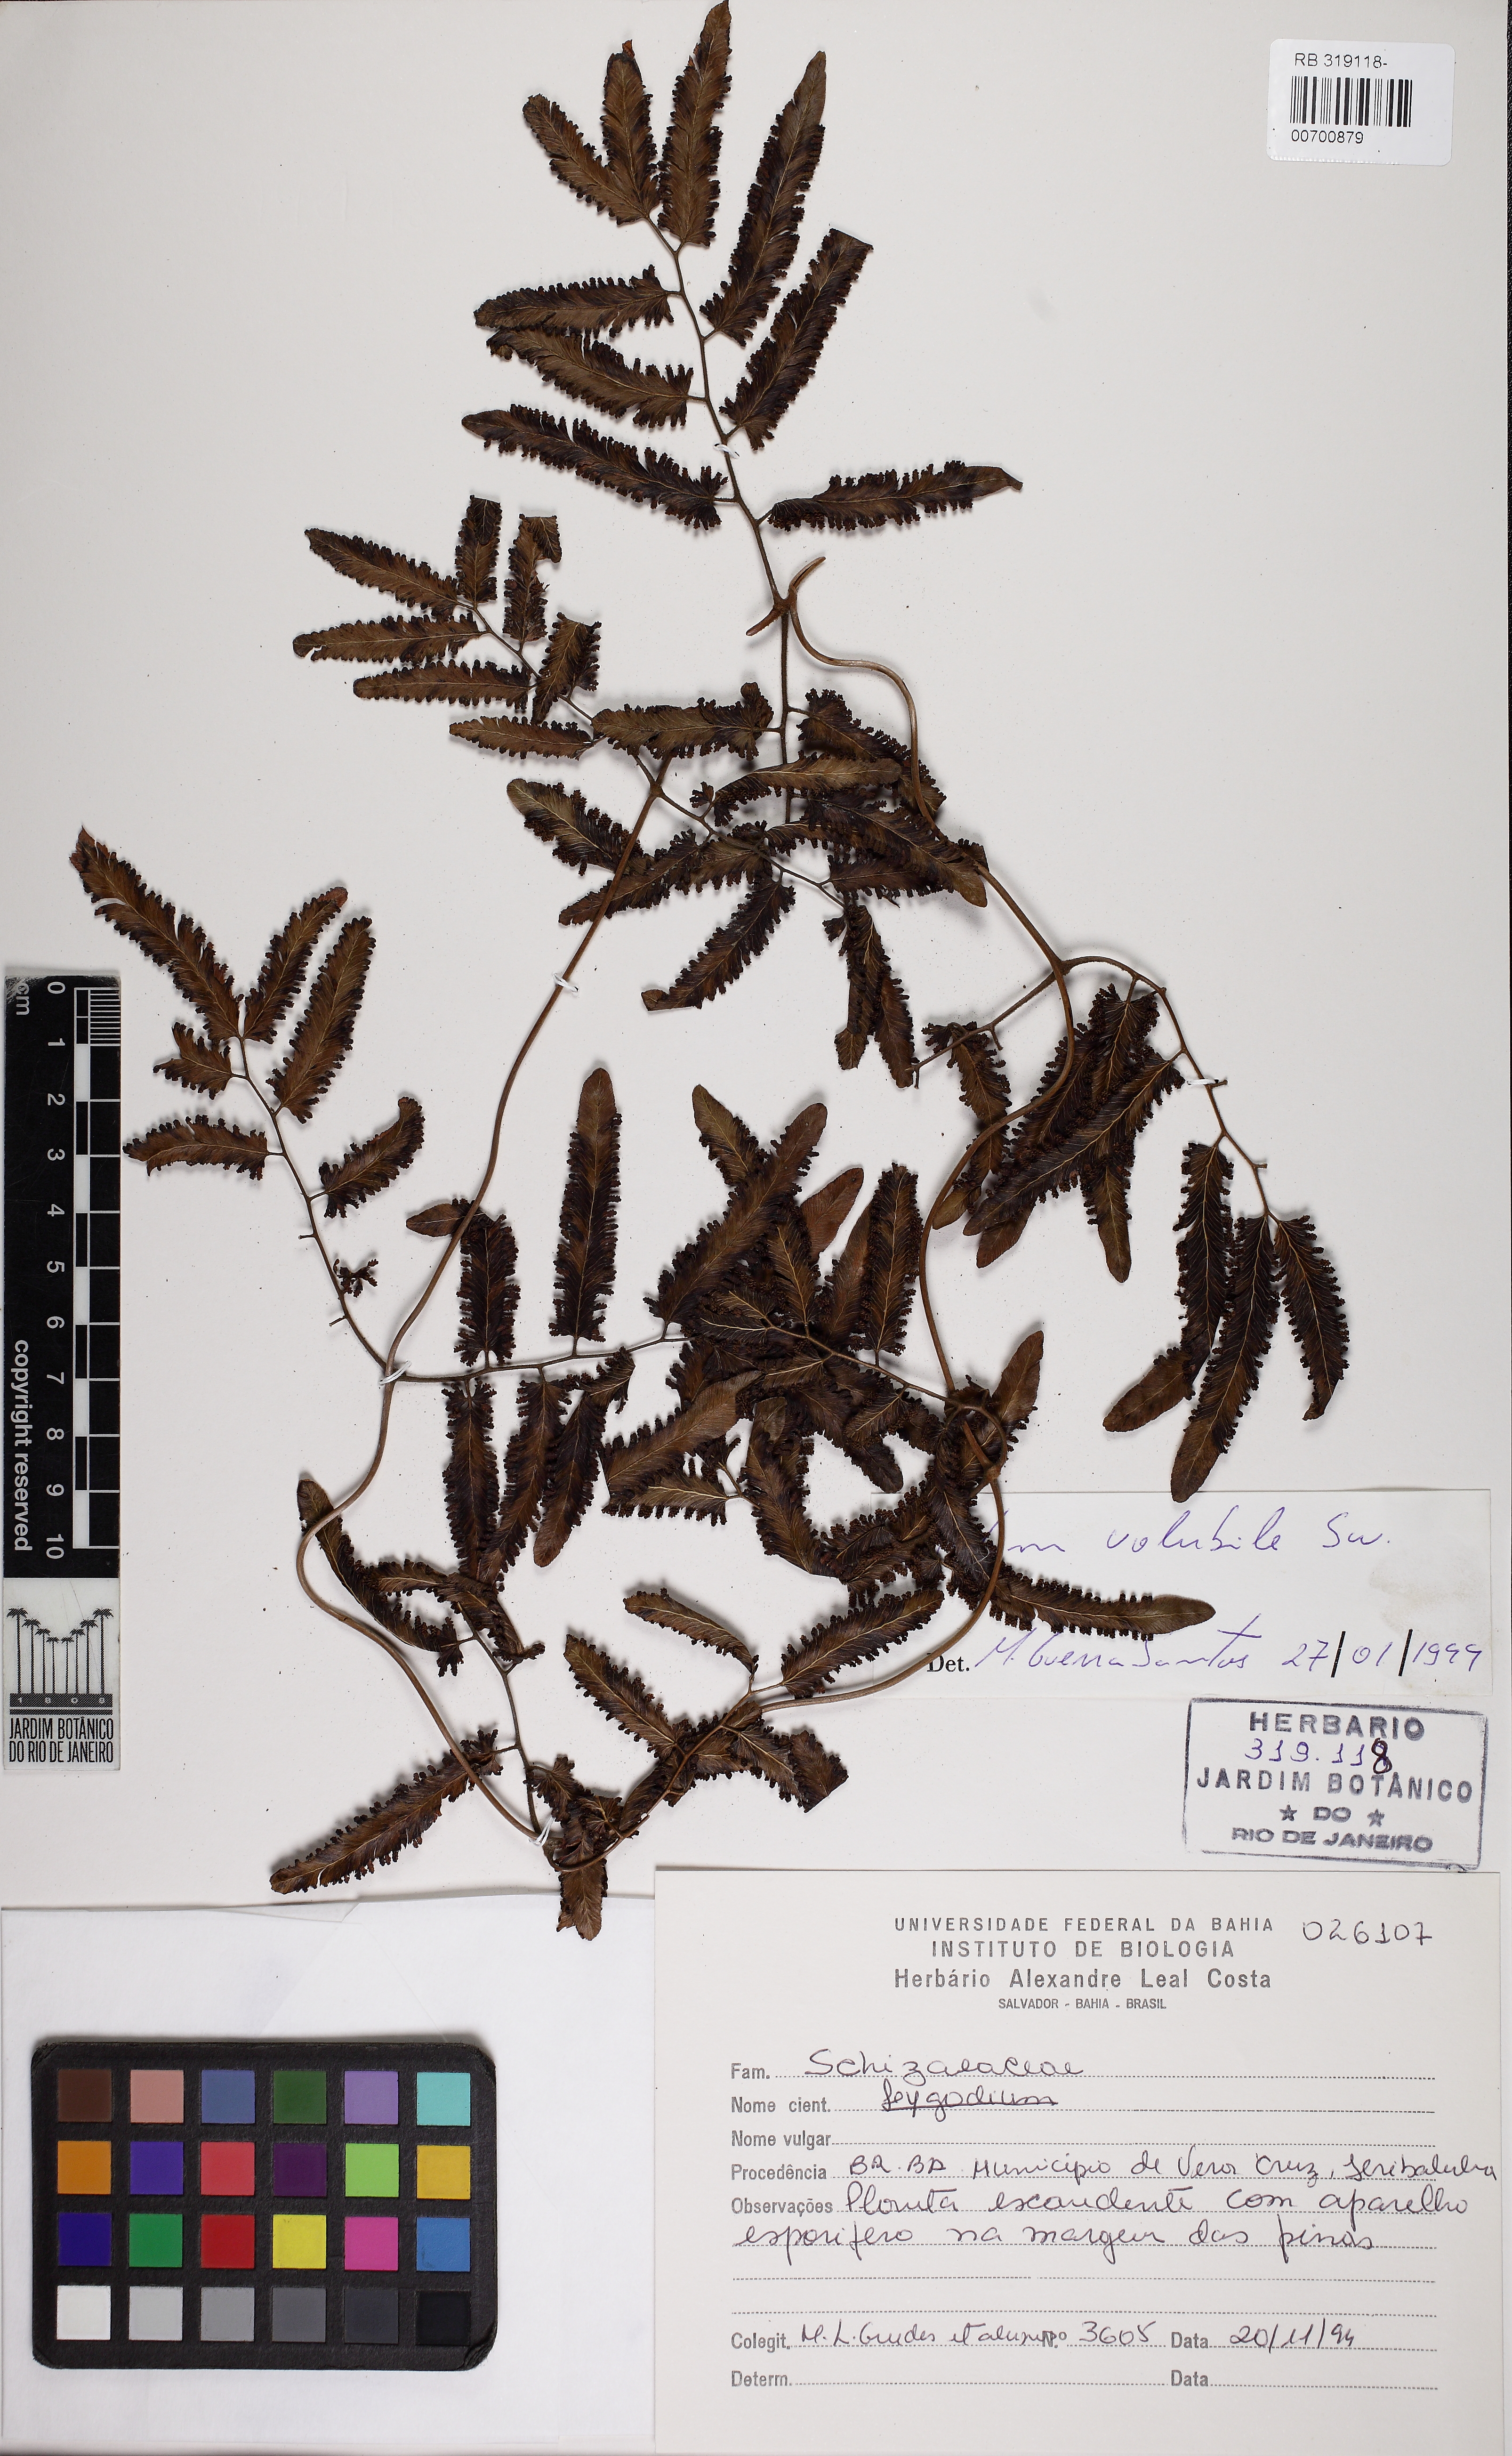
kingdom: Plantae
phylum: Tracheophyta
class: Polypodiopsida
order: Schizaeales
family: Lygodiaceae
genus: Lygodium
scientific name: Lygodium volubile
